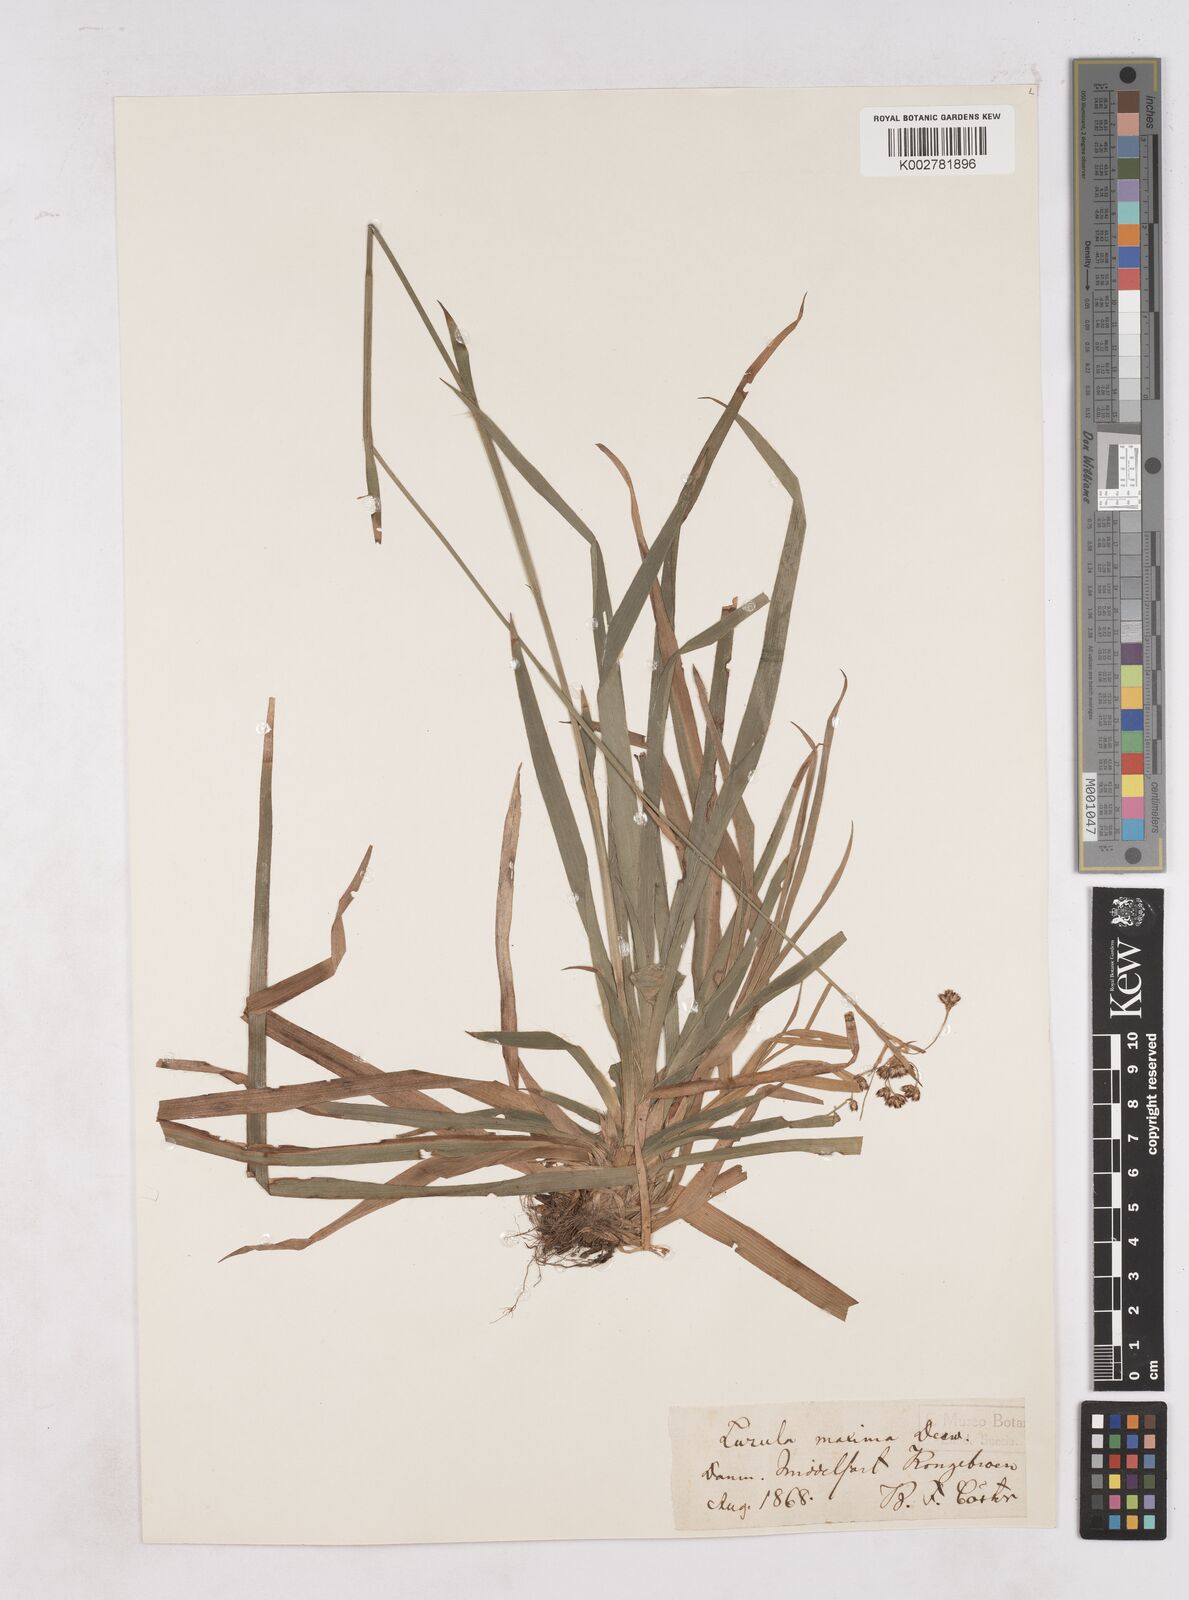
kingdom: Plantae
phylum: Tracheophyta
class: Liliopsida
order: Poales
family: Juncaceae
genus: Luzula
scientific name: Luzula sylvatica
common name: Great wood-rush
